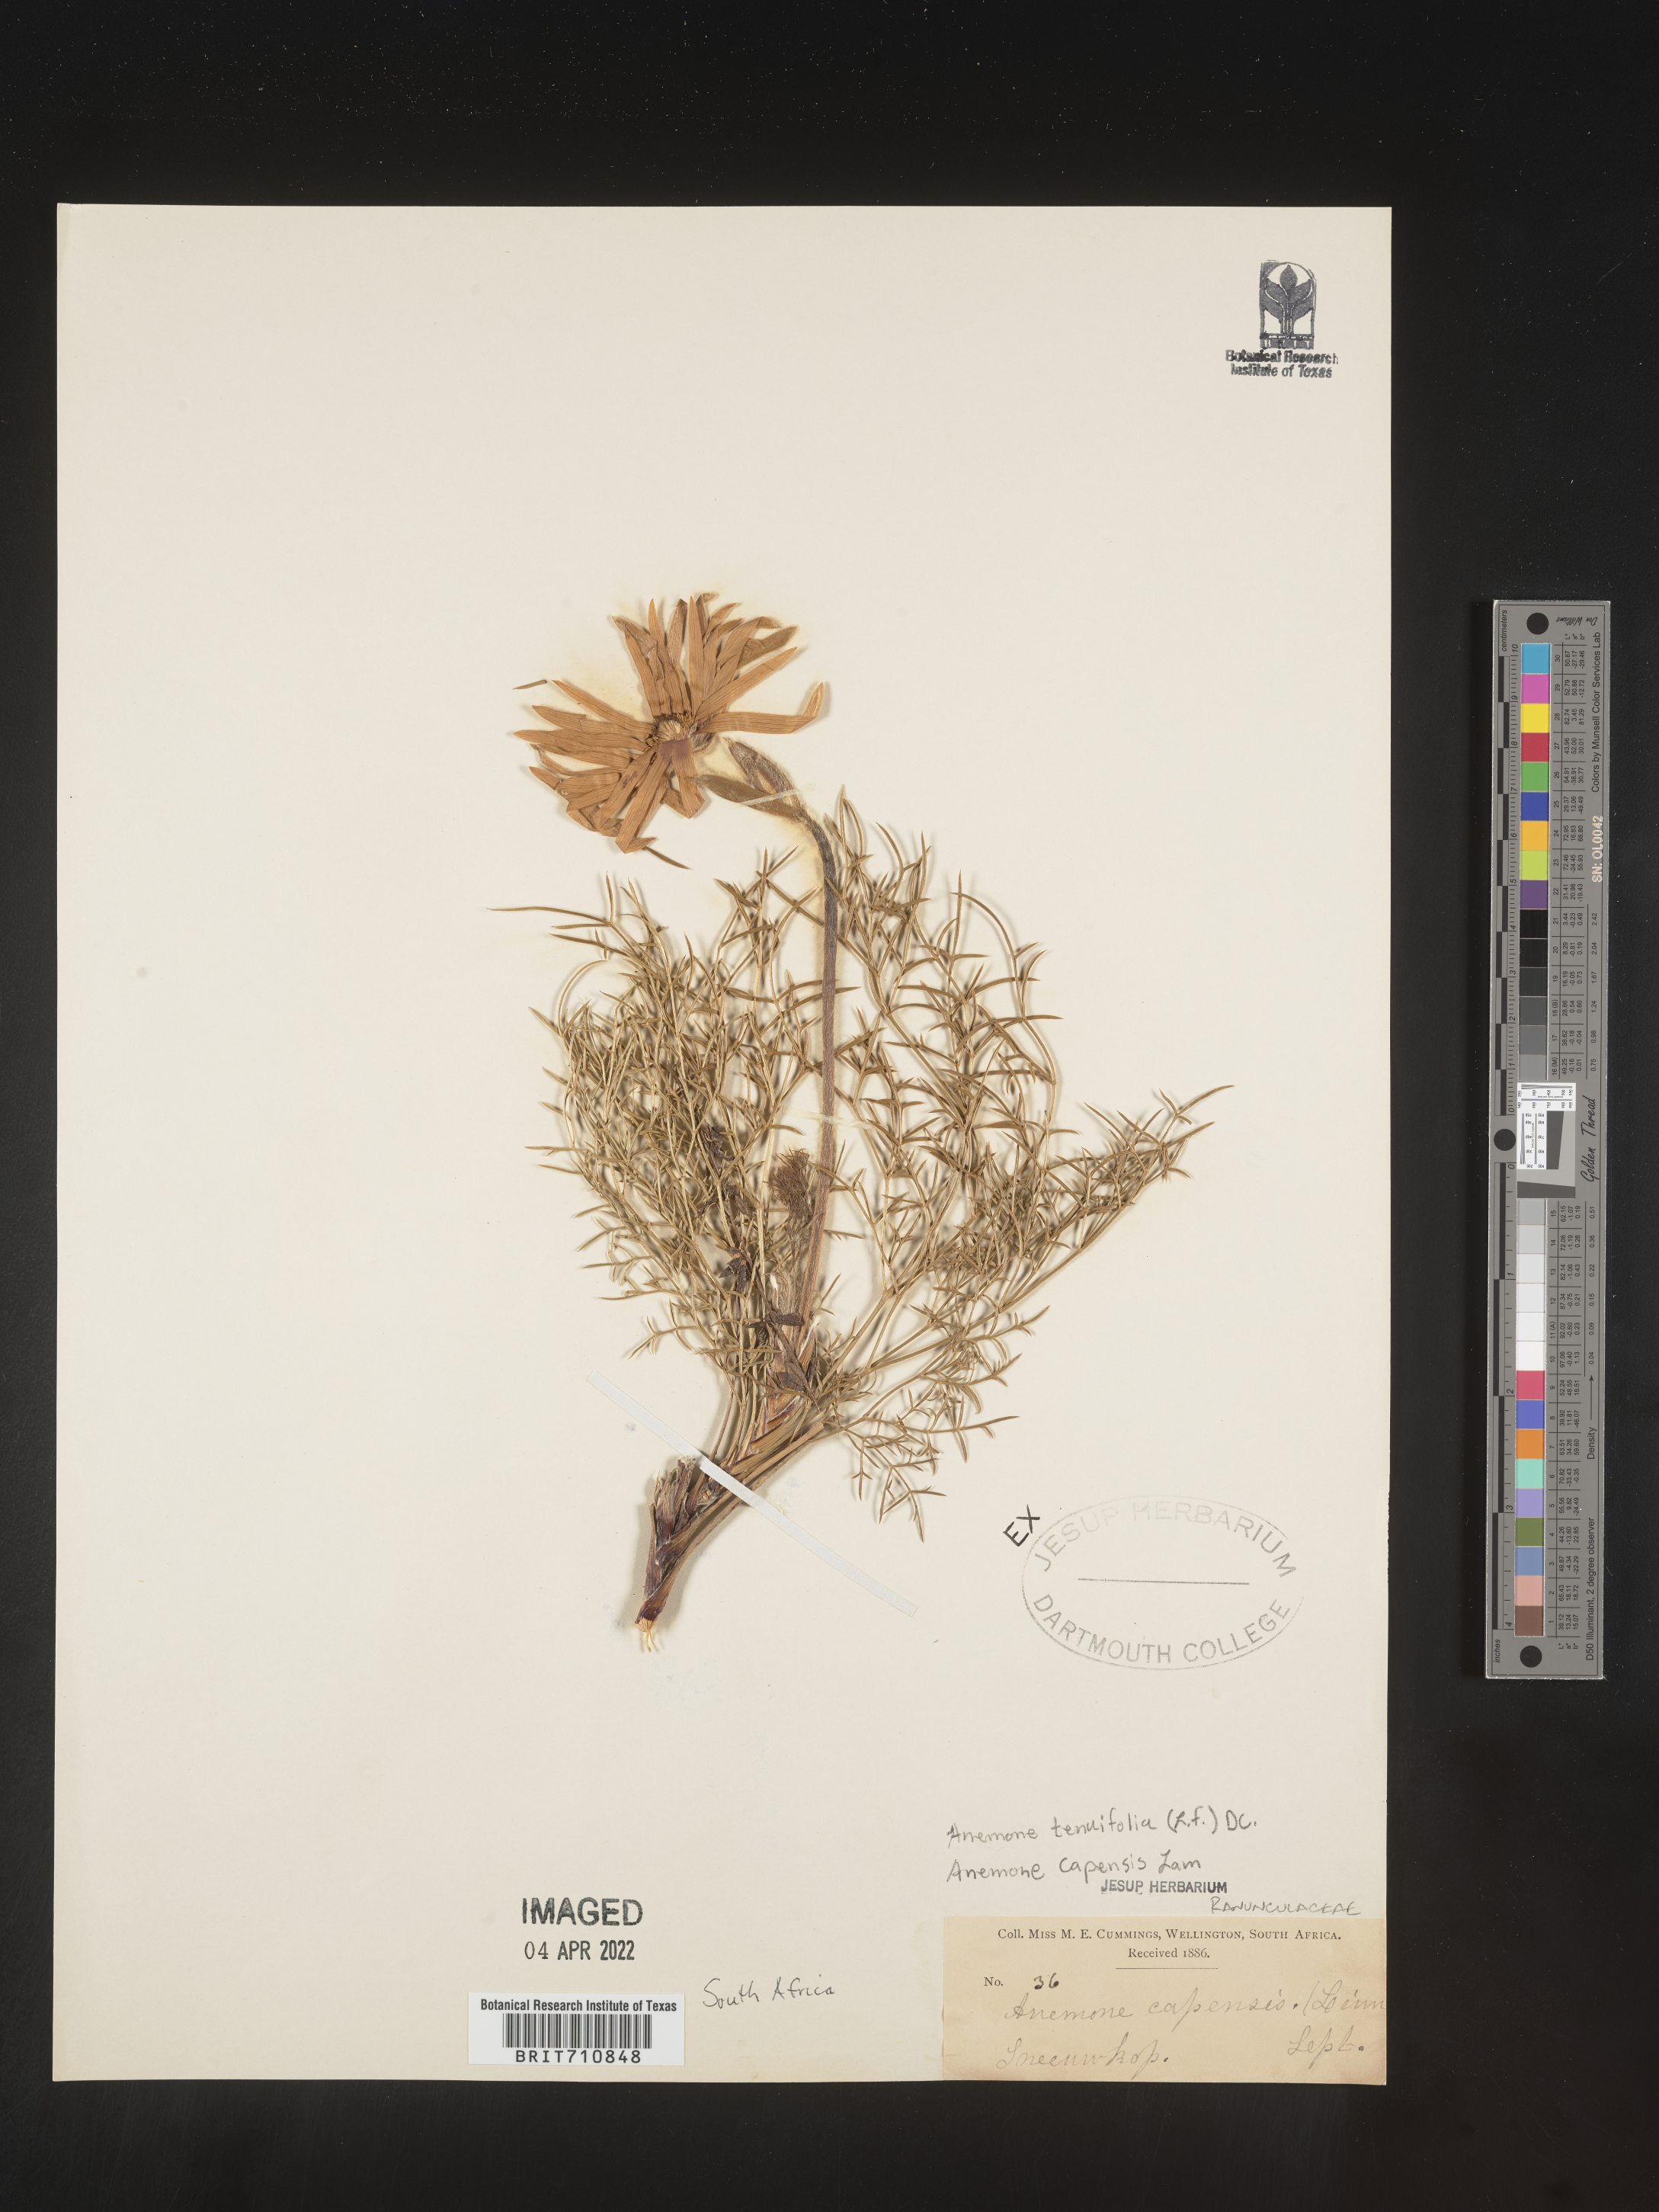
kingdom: Plantae
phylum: Tracheophyta
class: Magnoliopsida
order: Ranunculales
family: Ranunculaceae
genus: Anemone
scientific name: Anemone
